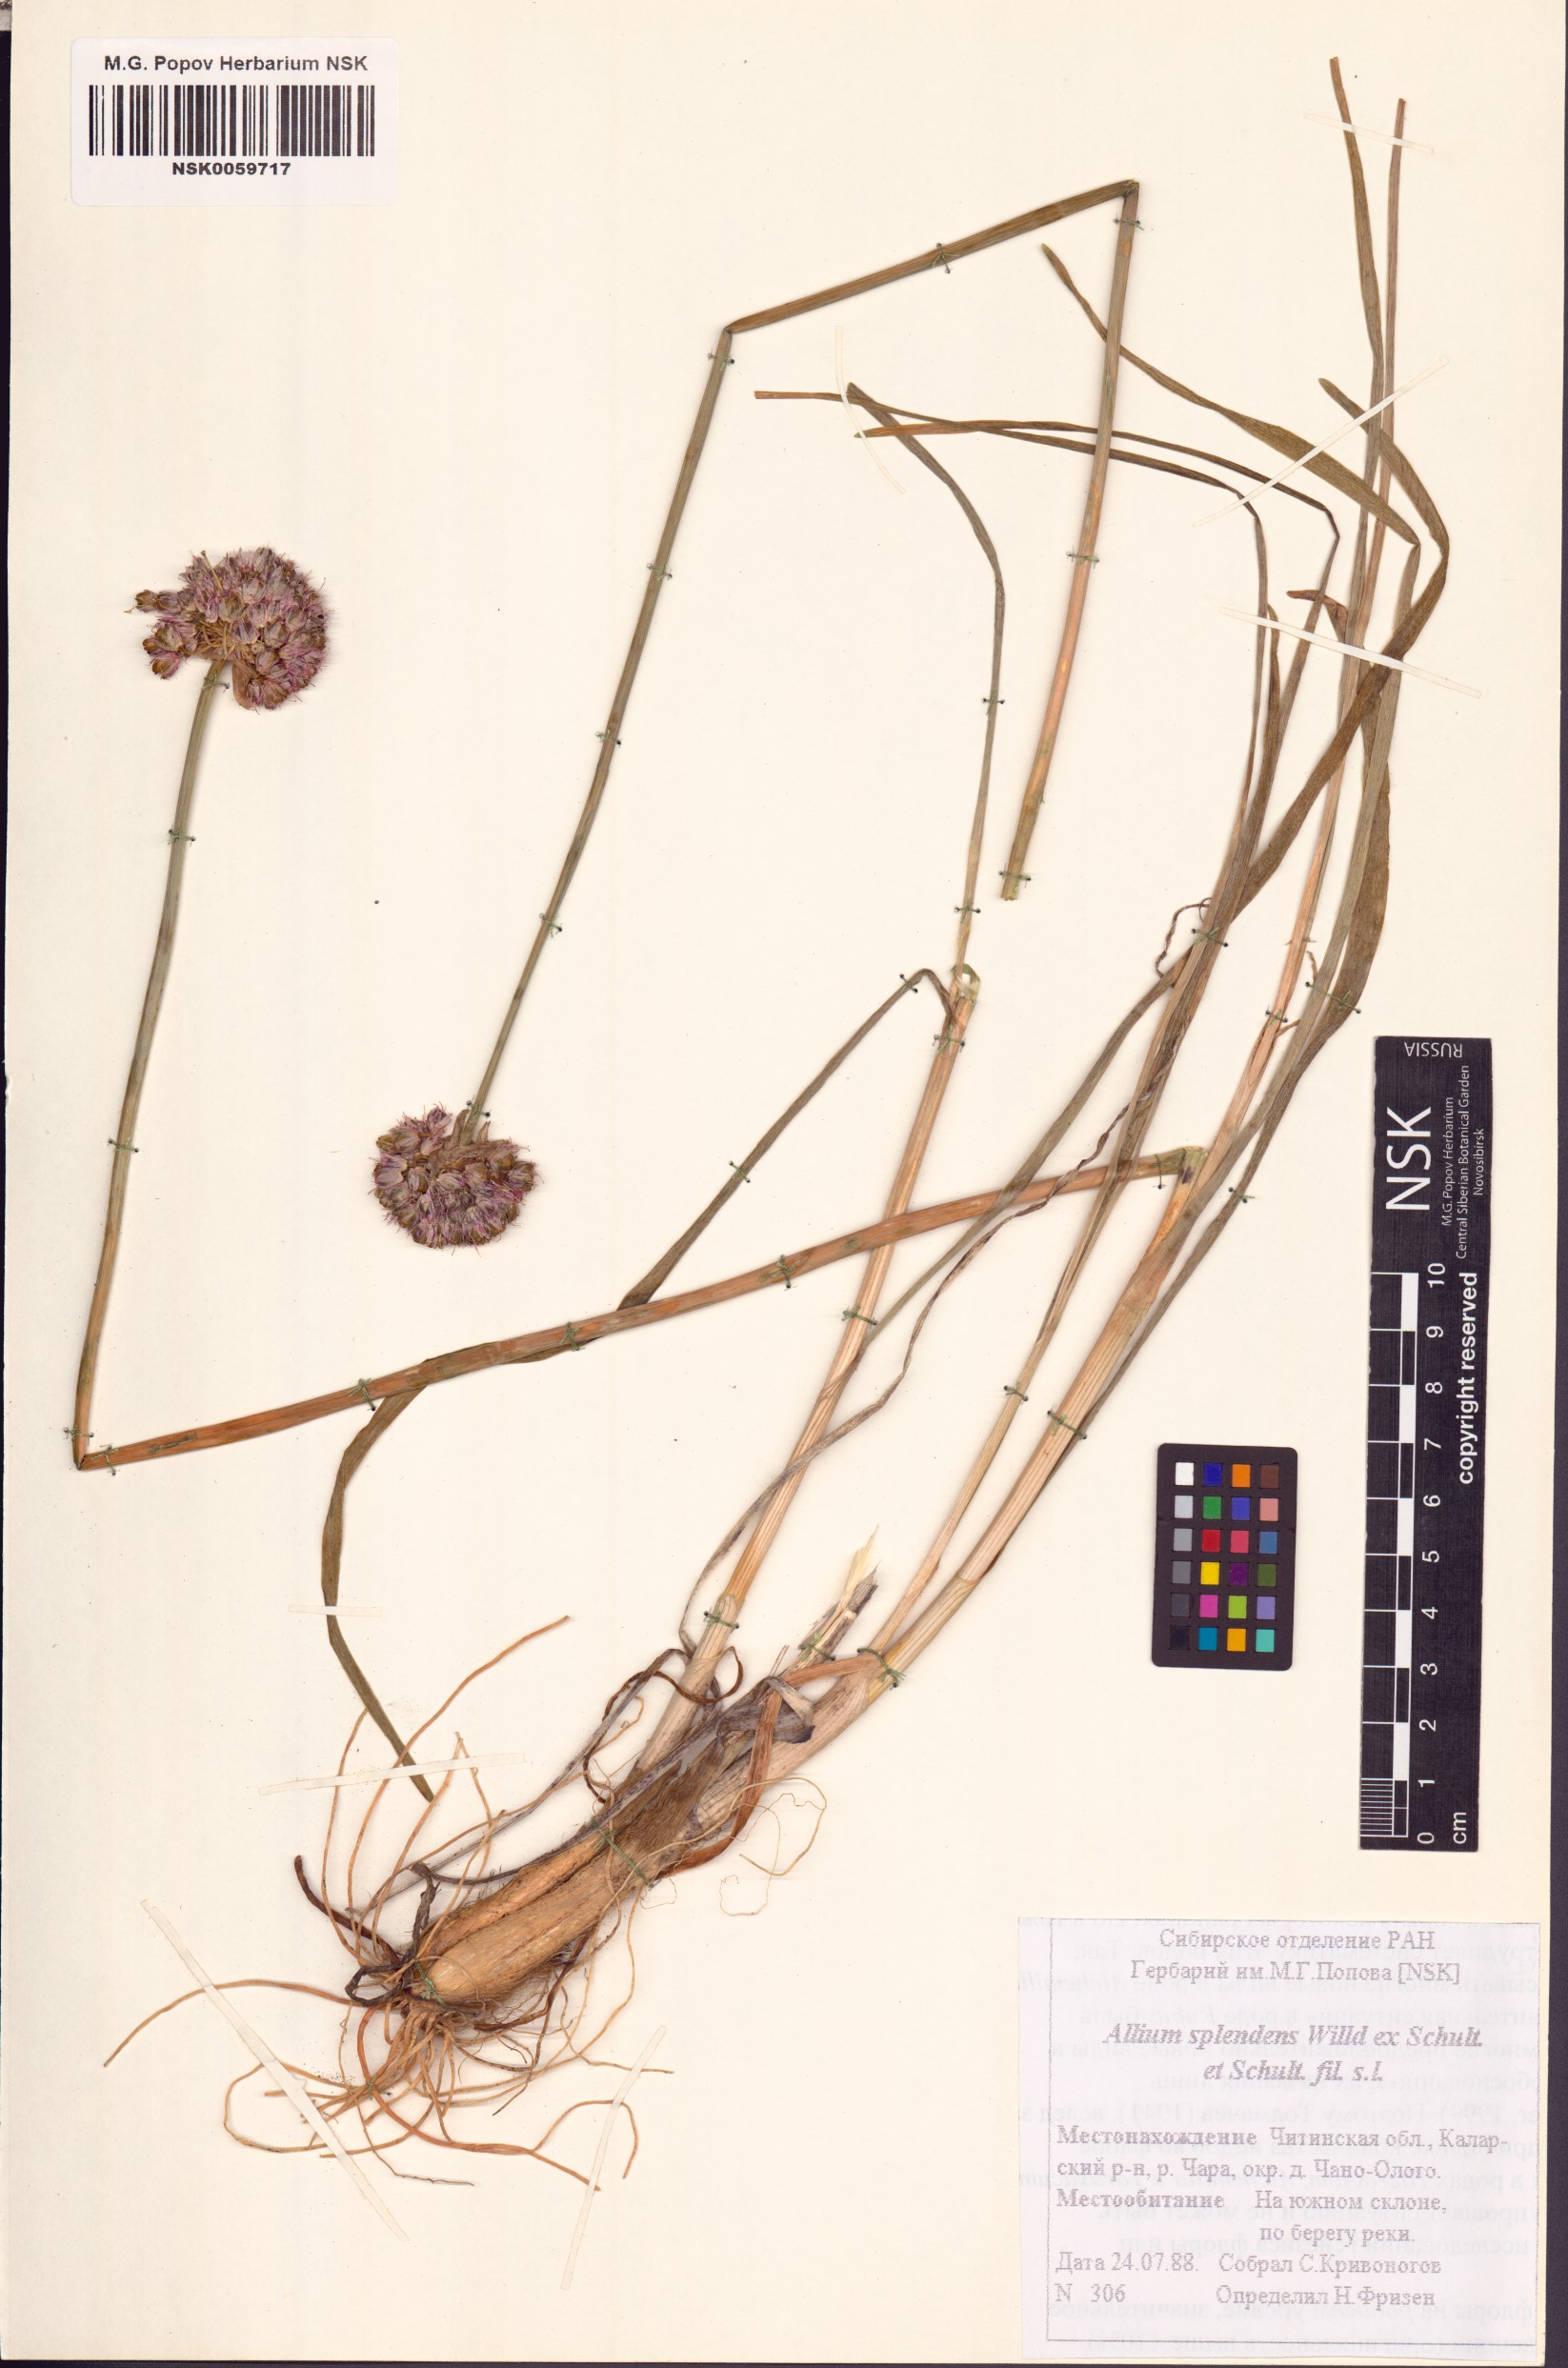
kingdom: Plantae
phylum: Tracheophyta
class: Liliopsida
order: Asparagales
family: Amaryllidaceae
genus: Allium
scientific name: Allium splendens
